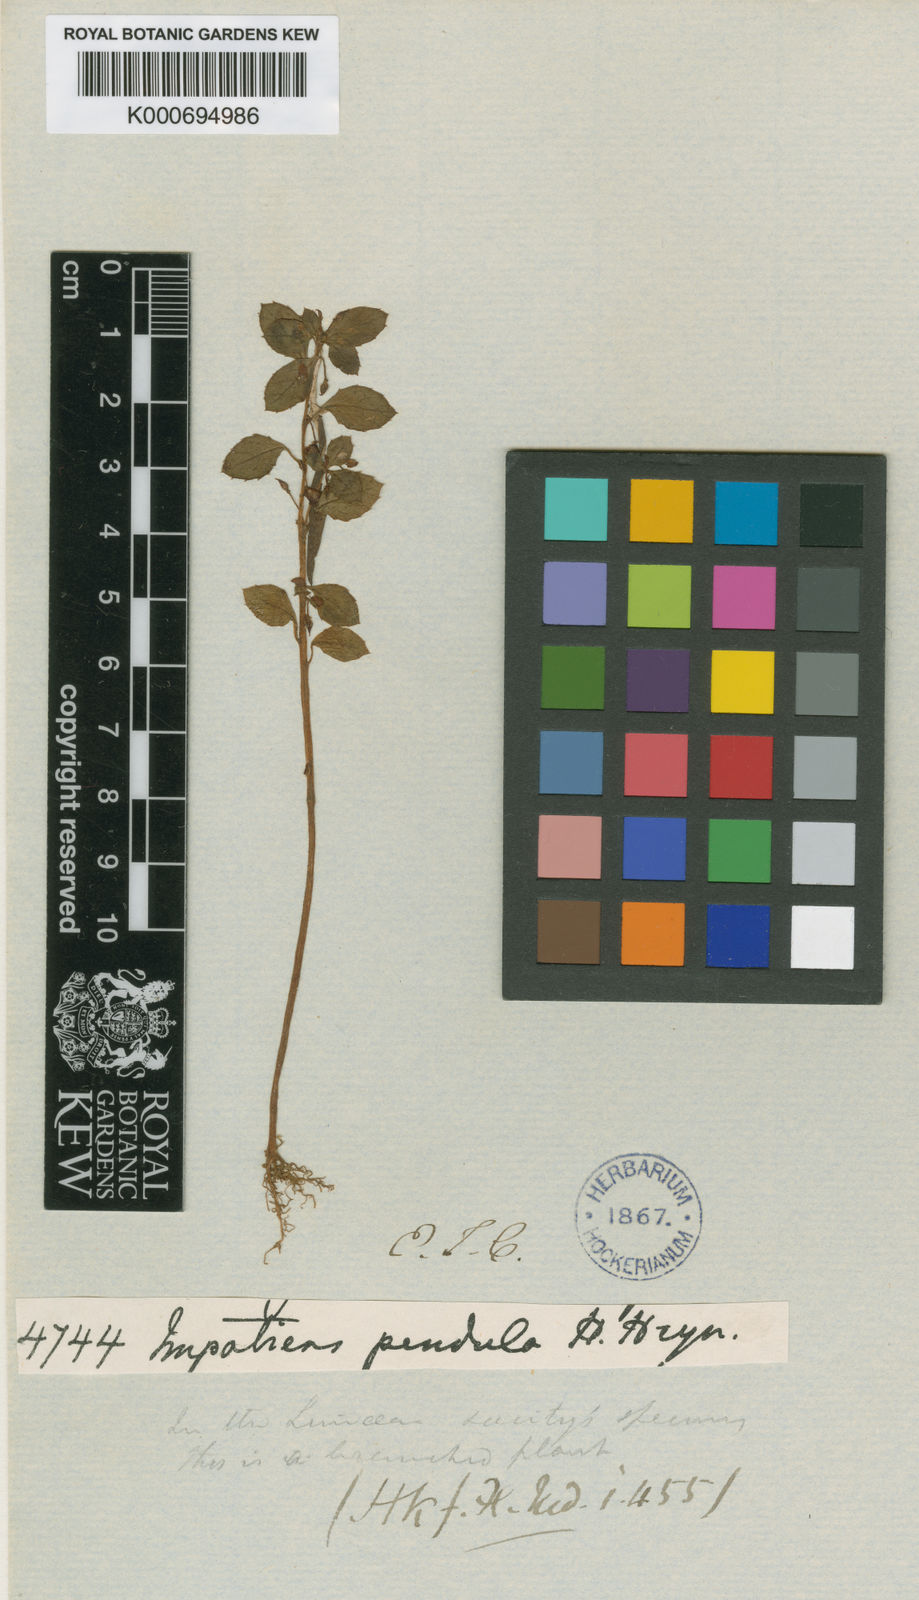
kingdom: Plantae
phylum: Tracheophyta
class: Magnoliopsida
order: Ericales
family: Balsaminaceae
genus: Impatiens
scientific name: Impatiens
